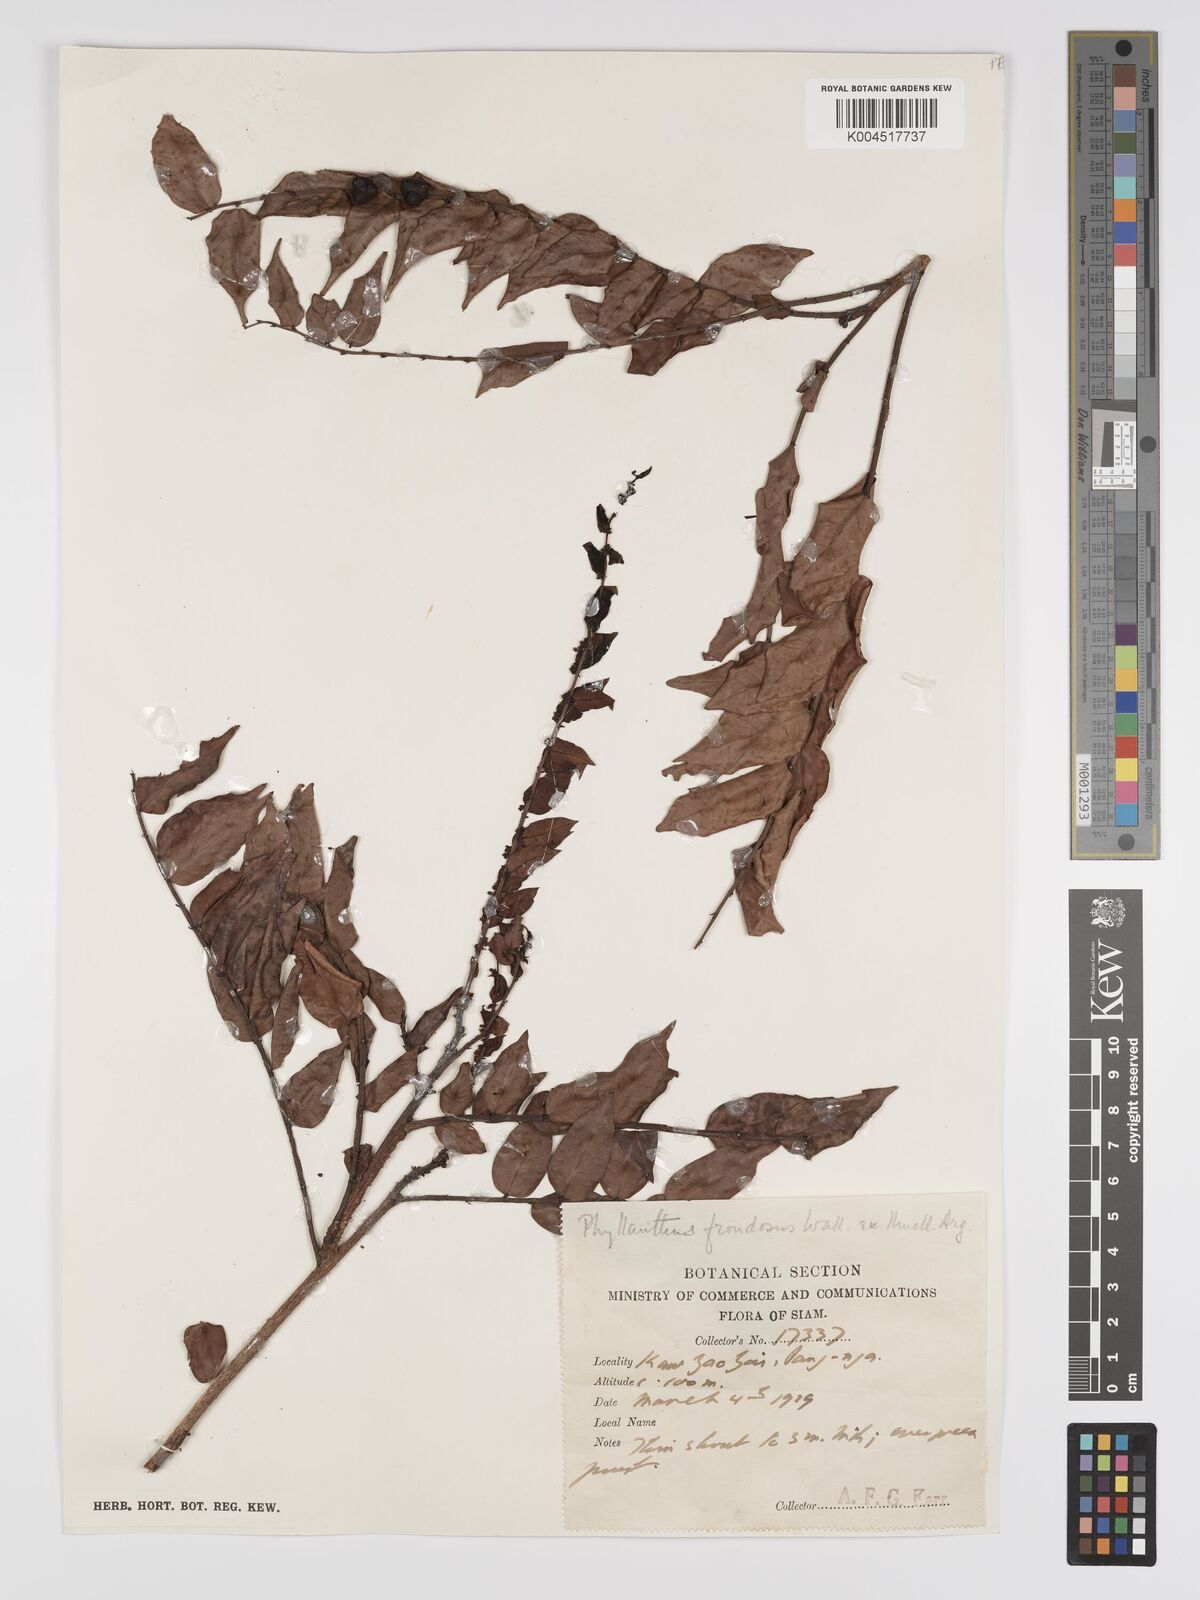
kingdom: Plantae
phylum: Tracheophyta
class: Magnoliopsida
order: Malpighiales
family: Phyllanthaceae
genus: Phyllanthus
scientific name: Phyllanthus
